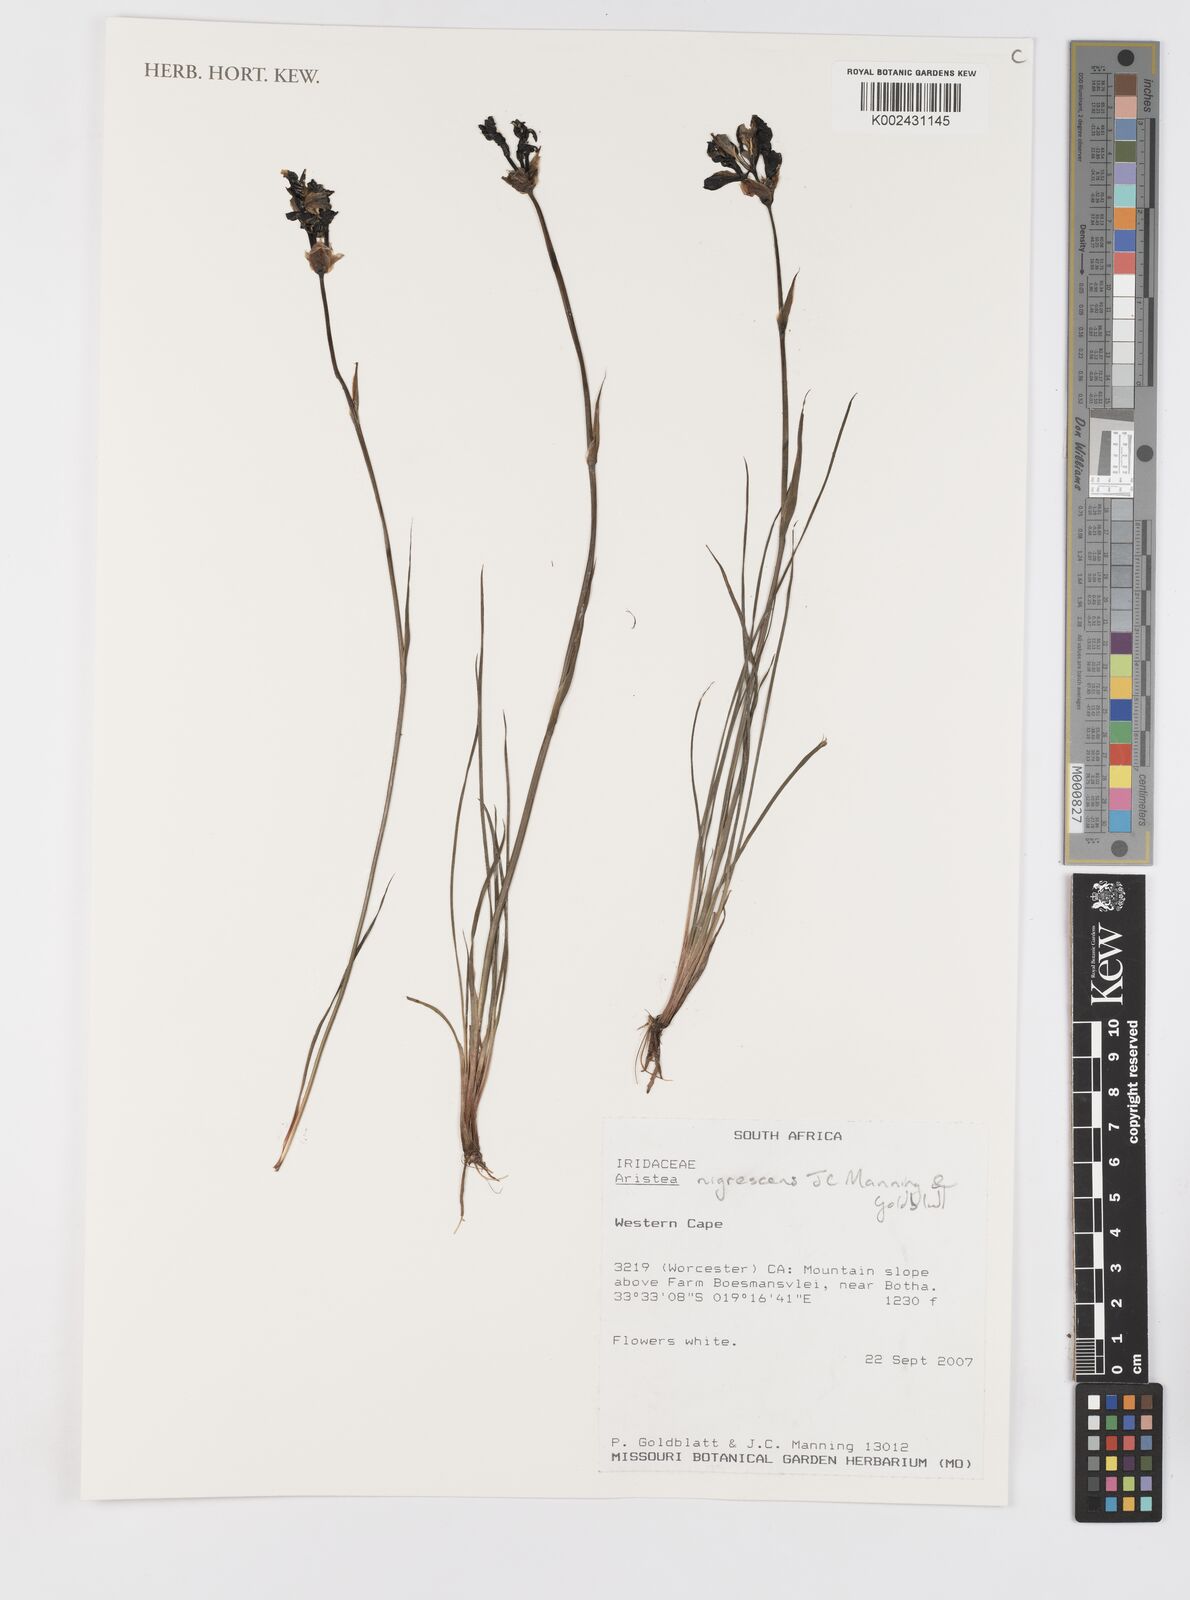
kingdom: Plantae
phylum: Tracheophyta
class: Liliopsida
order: Asparagales
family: Iridaceae
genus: Aristea
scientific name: Aristea rupicola
